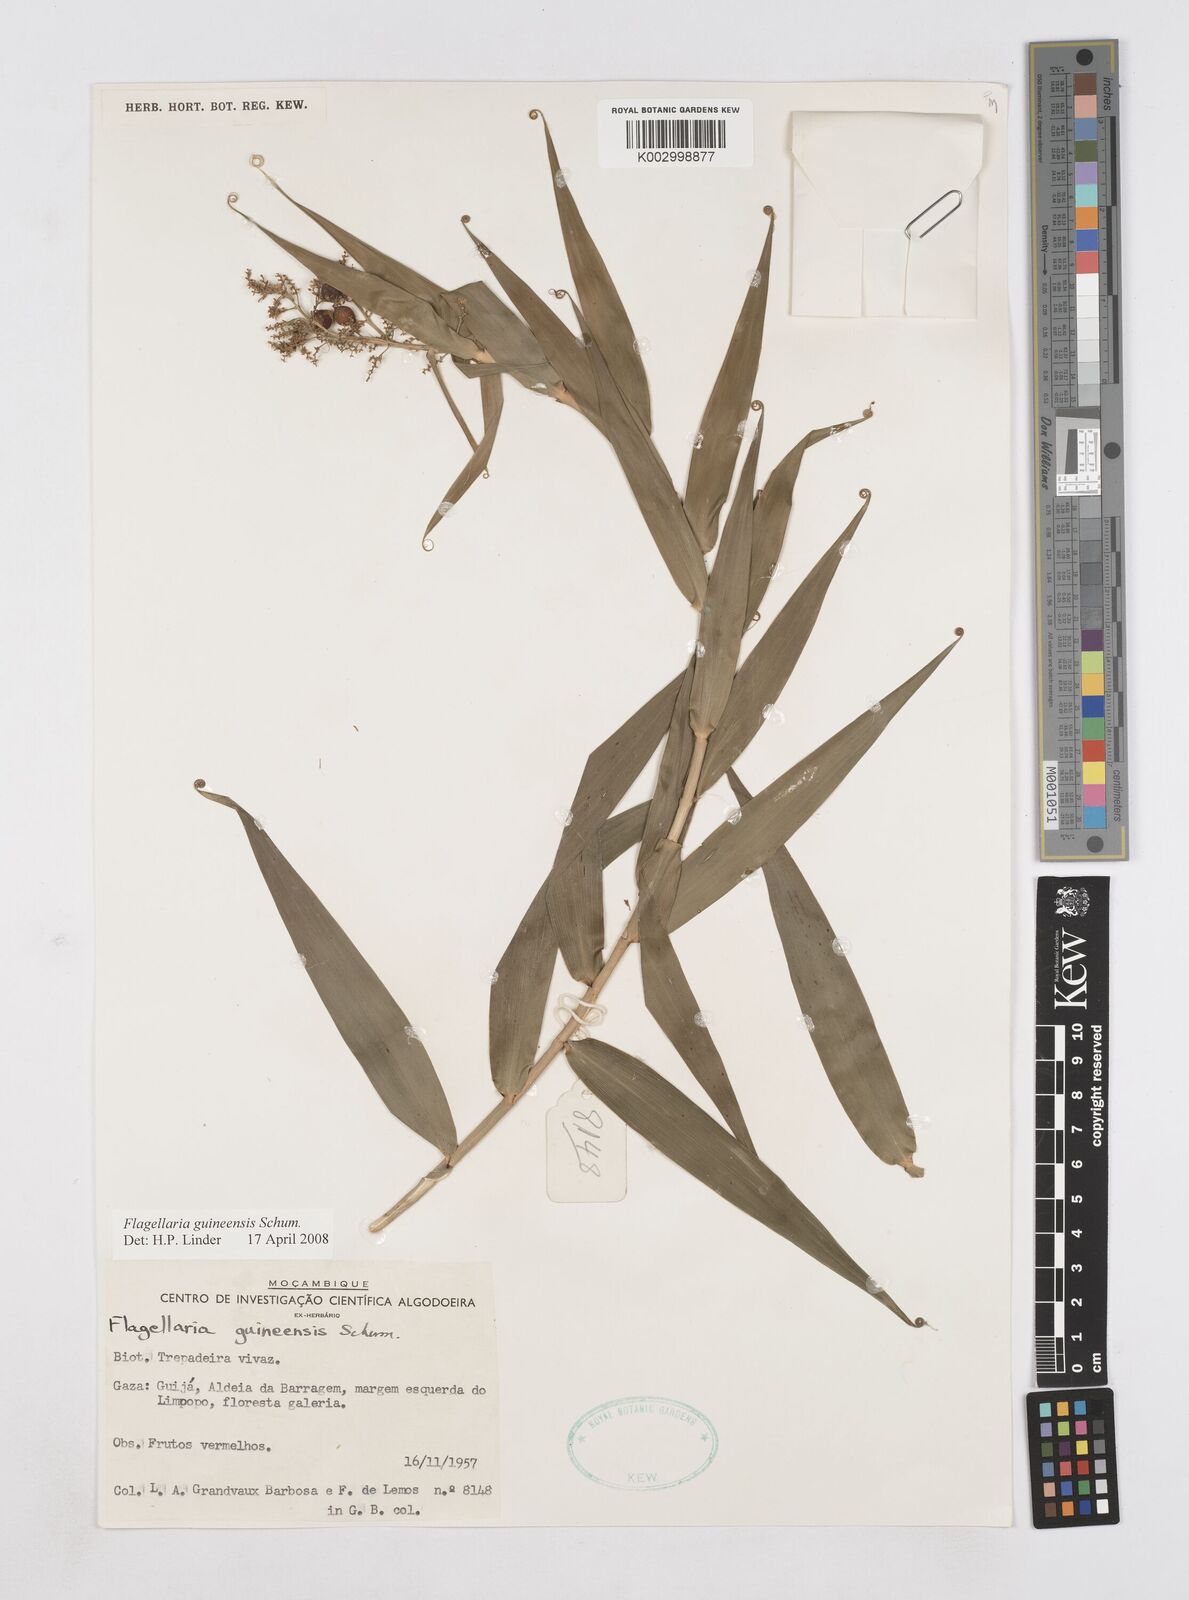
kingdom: Plantae
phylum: Tracheophyta
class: Liliopsida
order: Poales
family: Flagellariaceae
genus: Flagellaria
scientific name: Flagellaria guineensis
